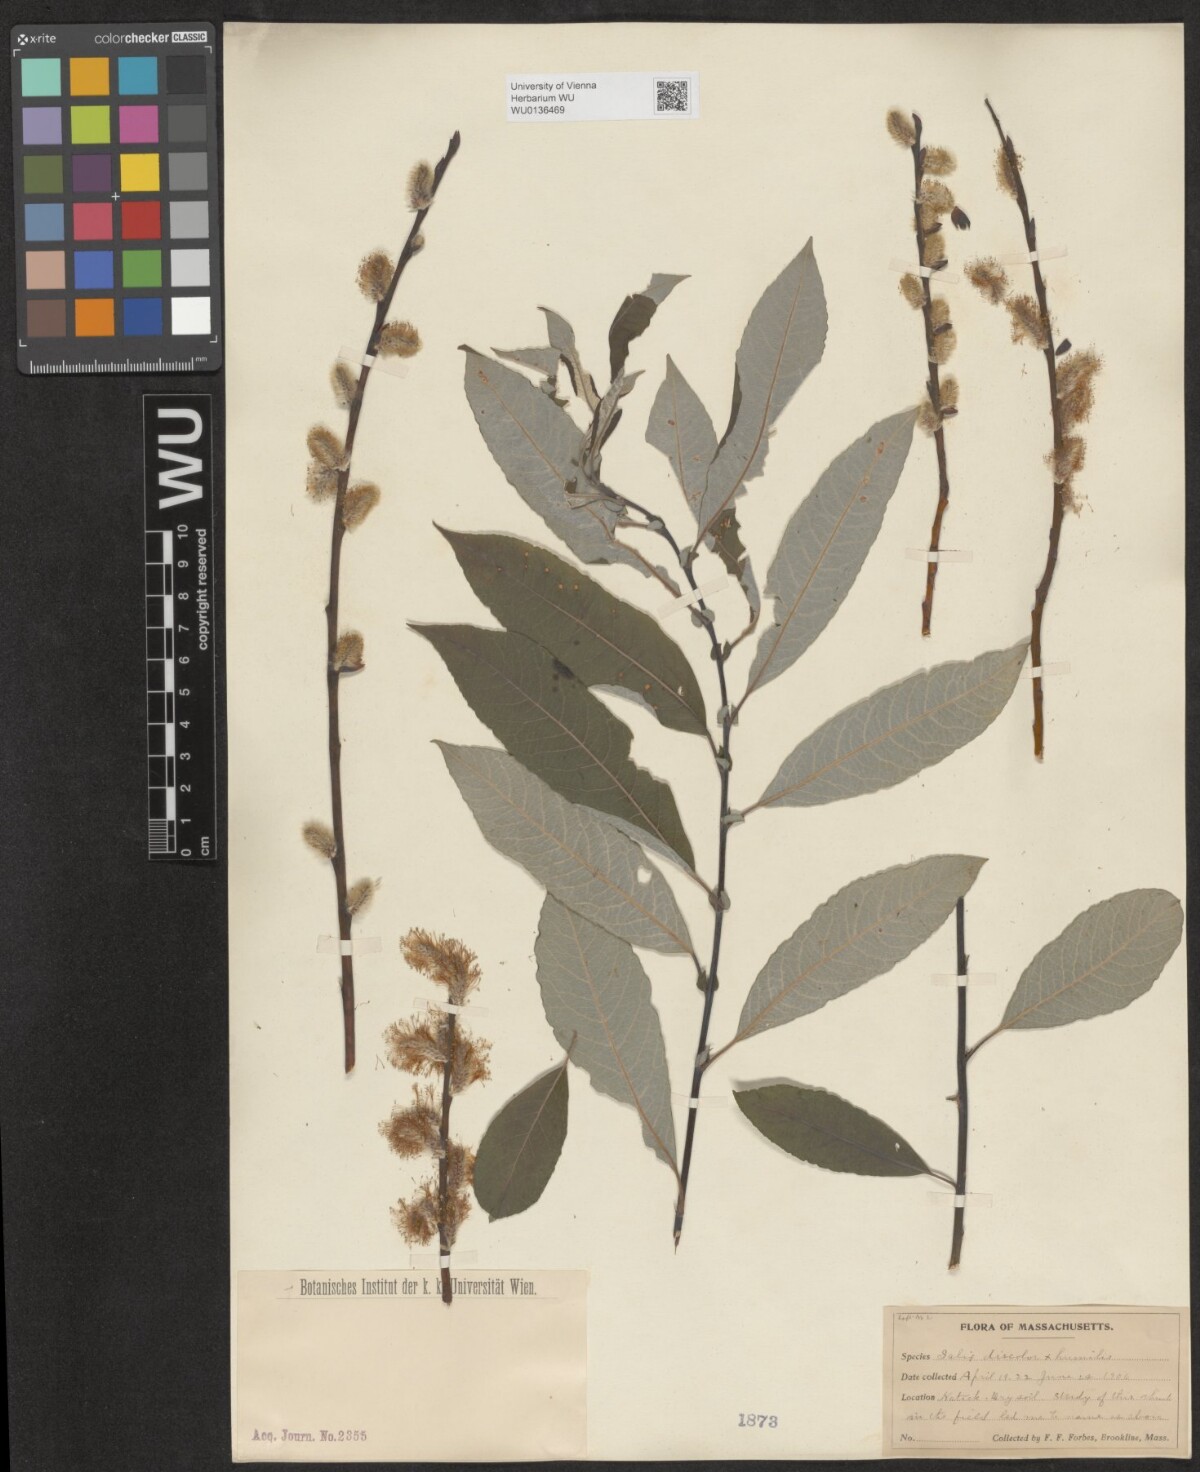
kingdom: Plantae
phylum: Tracheophyta
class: Magnoliopsida
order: Malpighiales
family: Salicaceae
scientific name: Salicaceae
